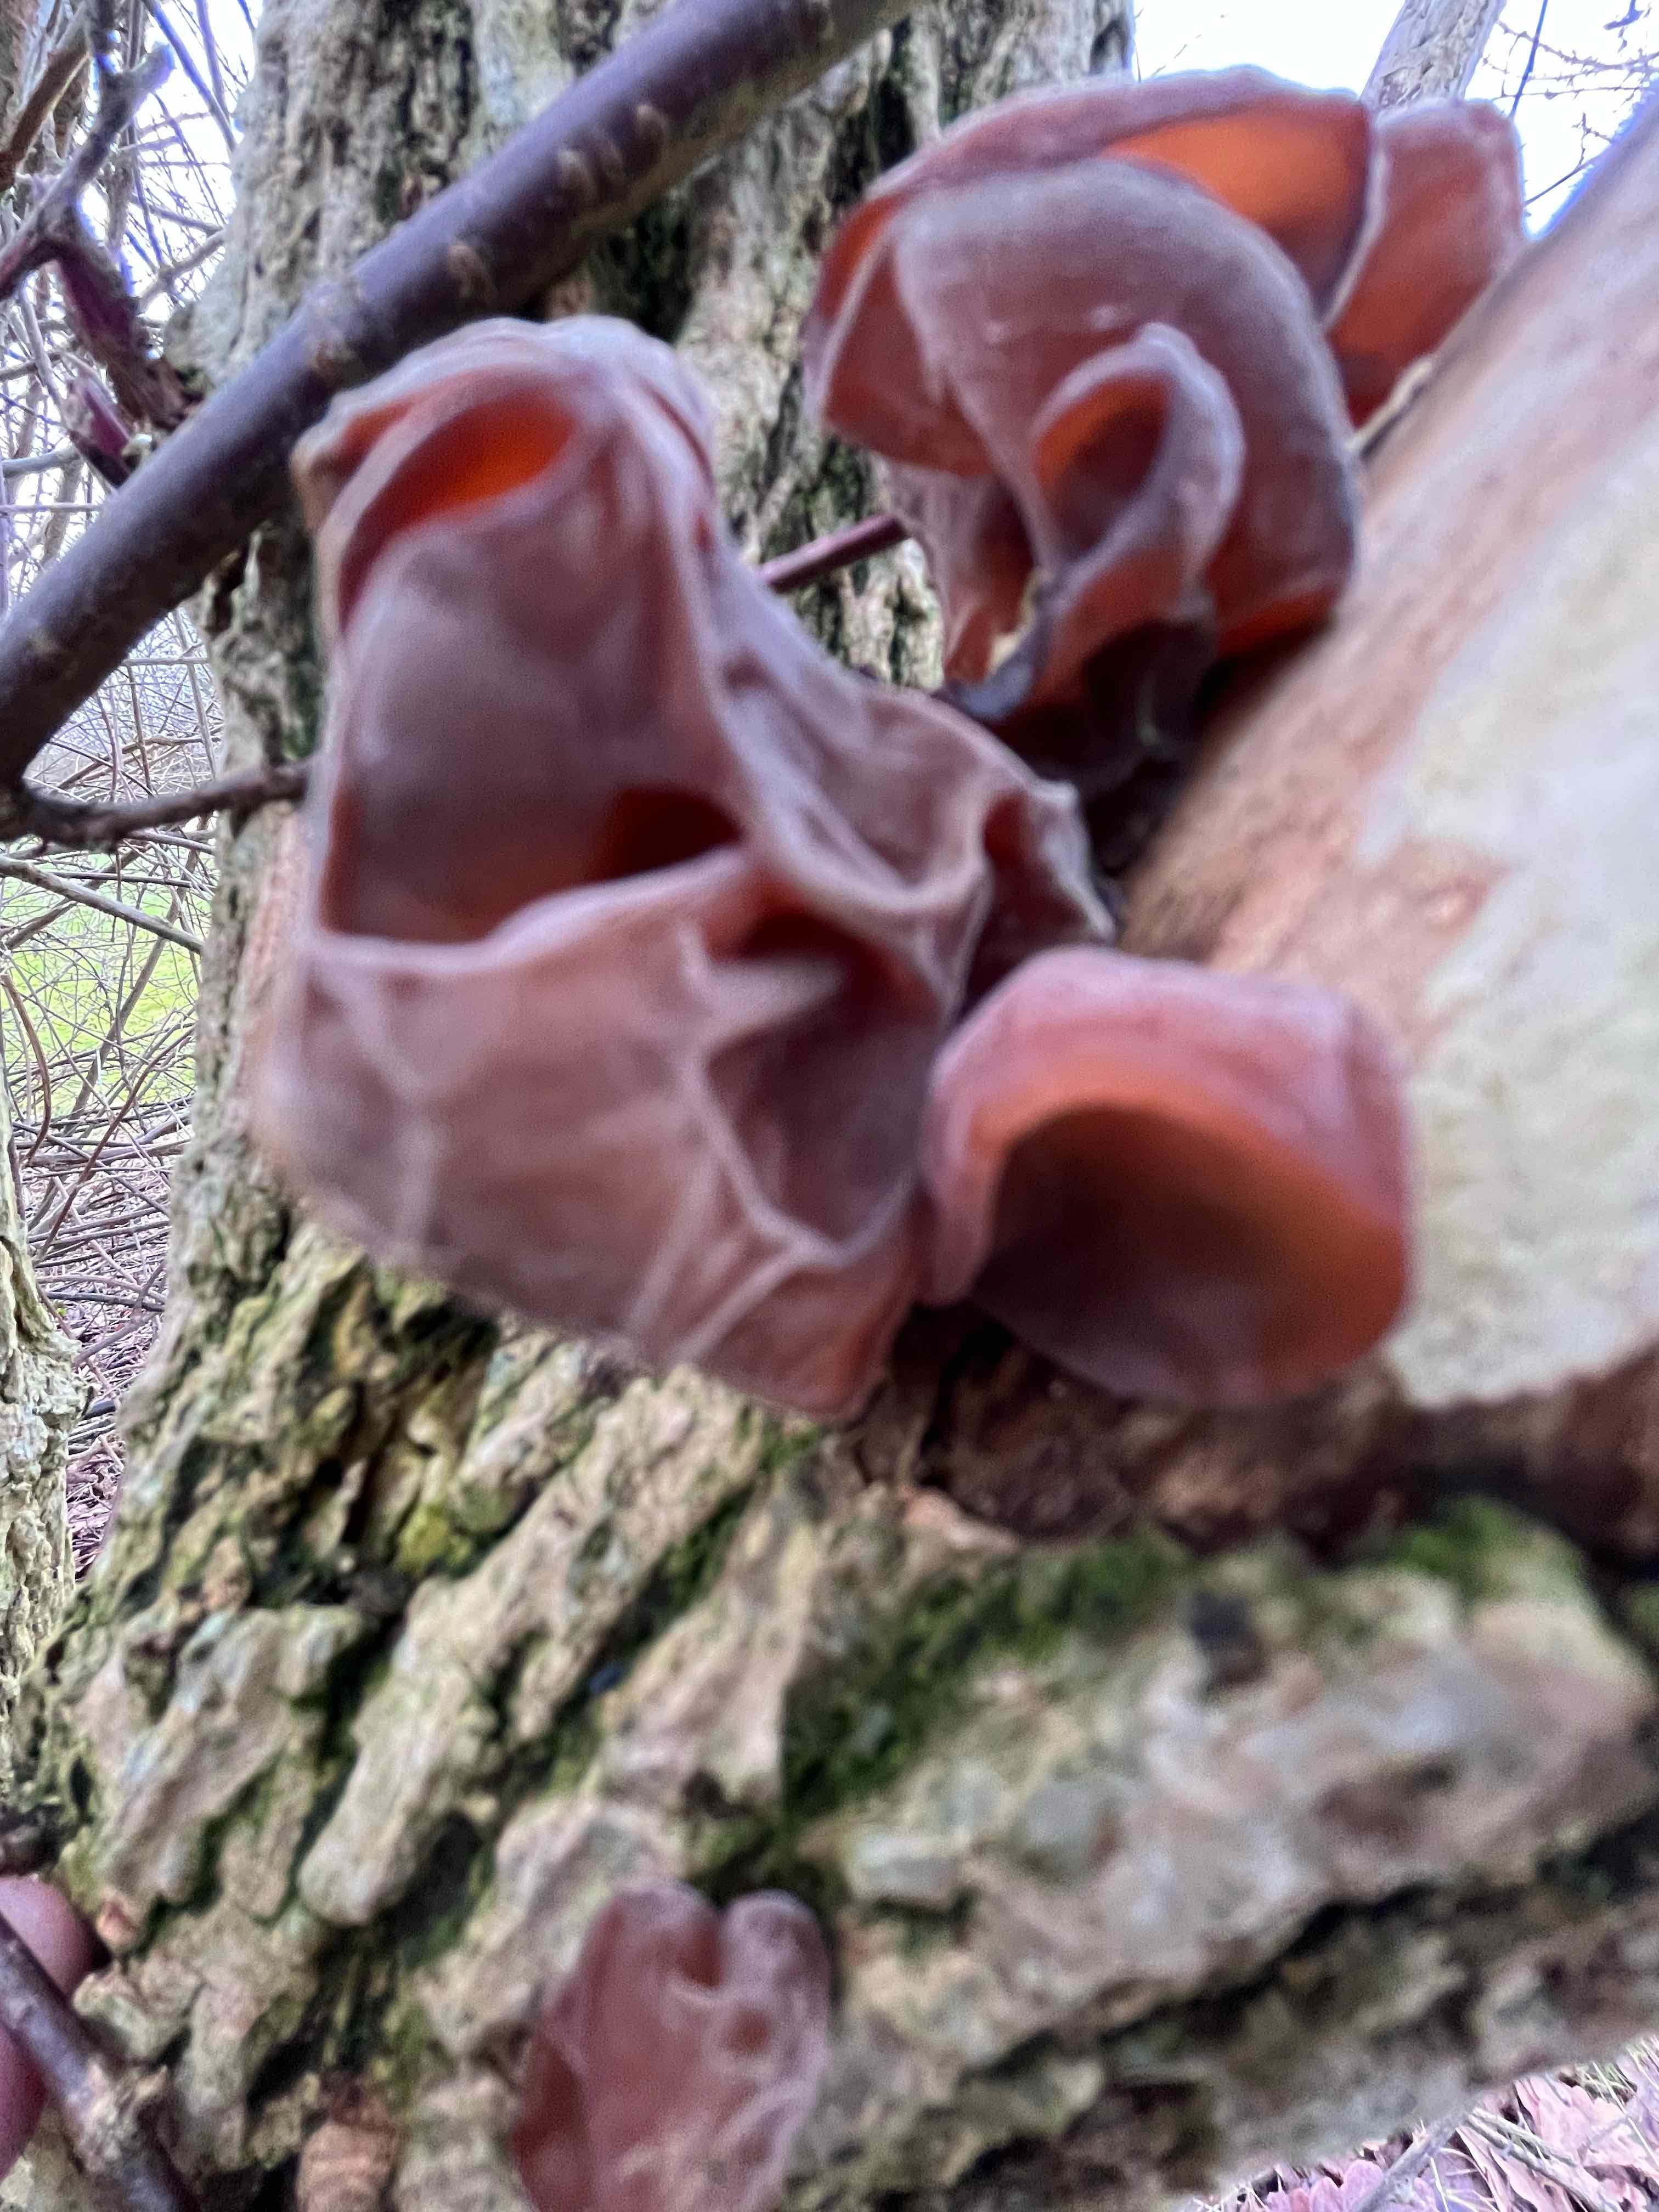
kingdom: Fungi
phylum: Basidiomycota
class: Agaricomycetes
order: Auriculariales
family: Auriculariaceae
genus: Auricularia
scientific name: Auricularia auricula-judae
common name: almindelig judasøre
